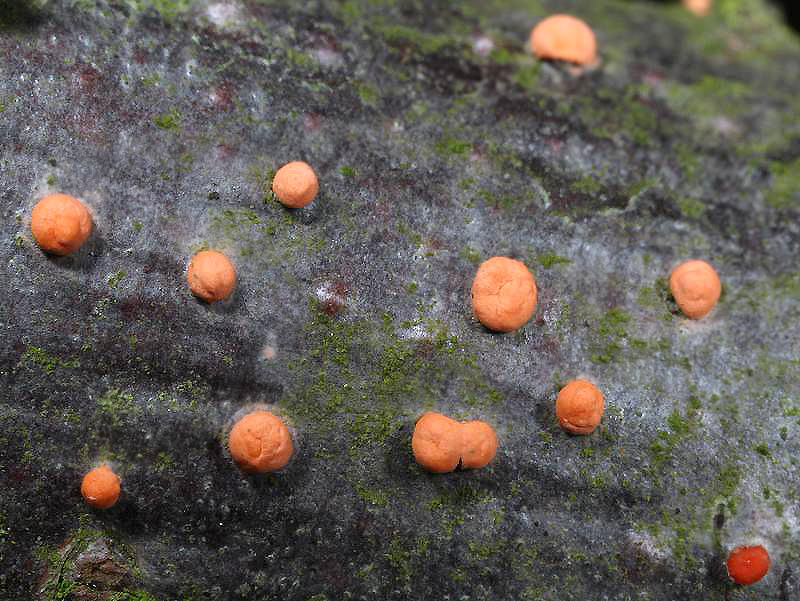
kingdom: Fungi
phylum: Ascomycota
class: Sordariomycetes
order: Hypocreales
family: Nectriaceae
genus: Nectria
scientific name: Nectria cinnabarina
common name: almindelig cinnobersvamp
